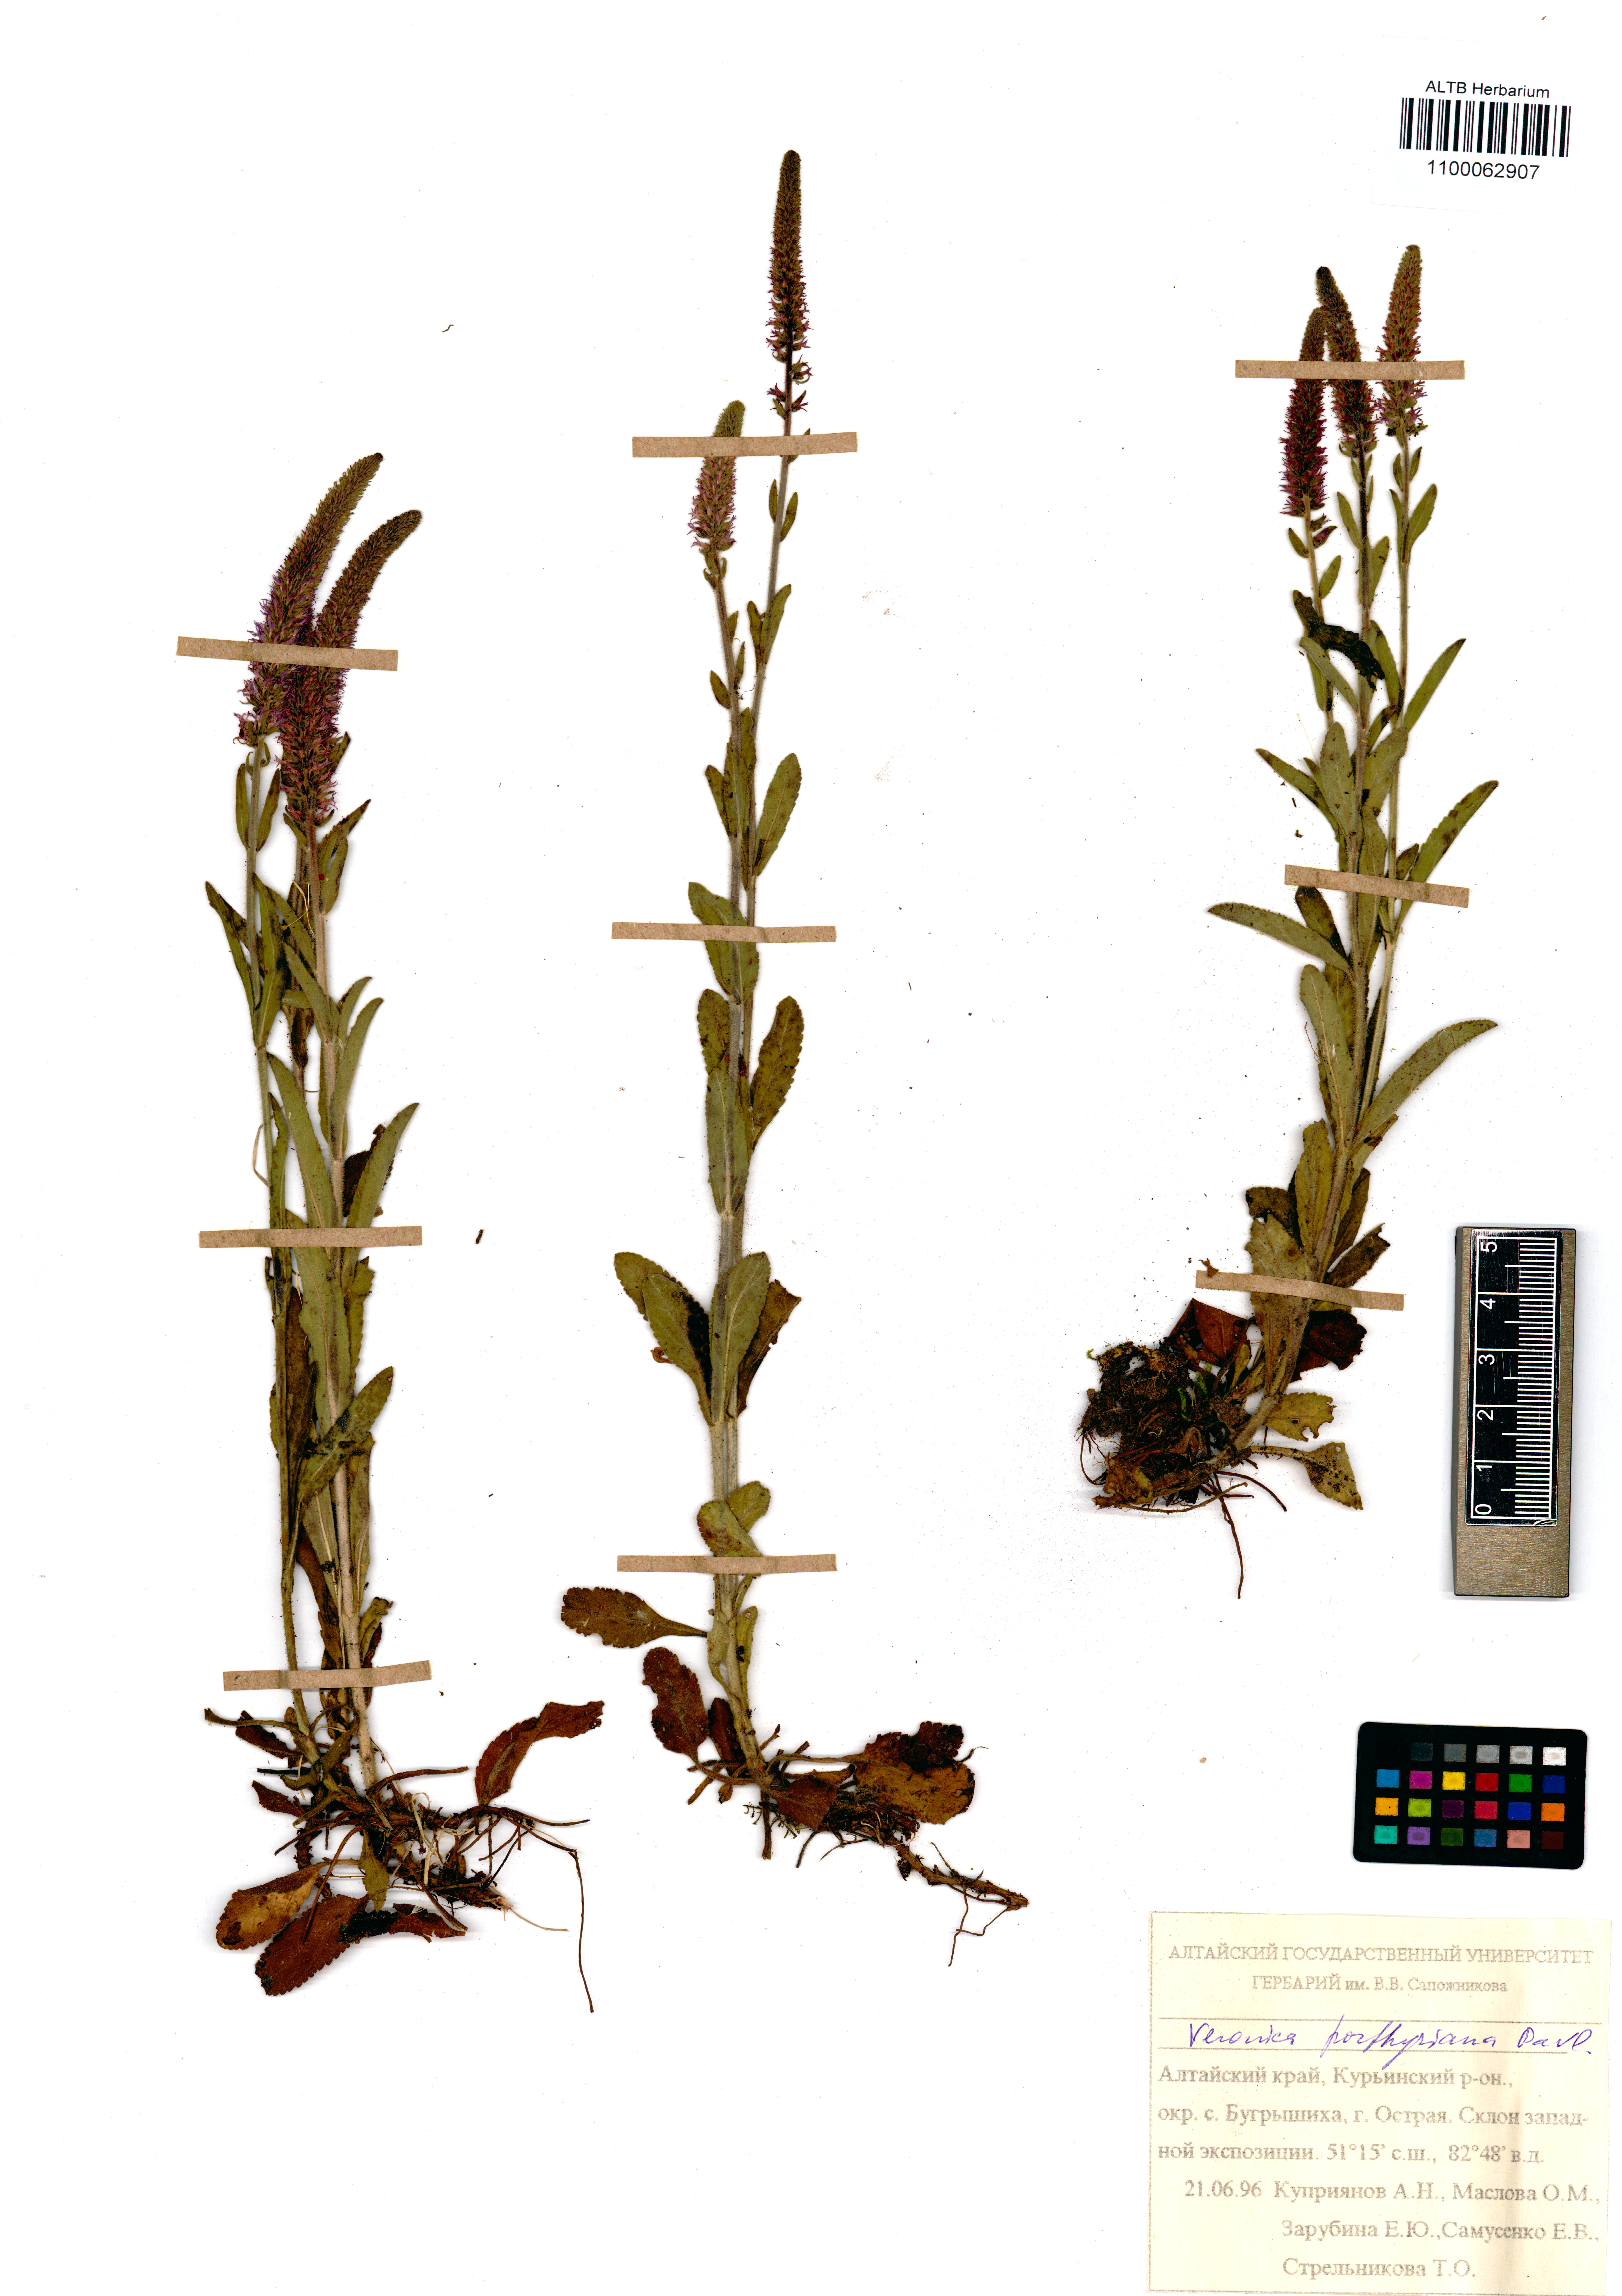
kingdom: Plantae
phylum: Tracheophyta
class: Magnoliopsida
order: Lamiales
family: Plantaginaceae
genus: Veronica
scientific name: Veronica porphyriana
